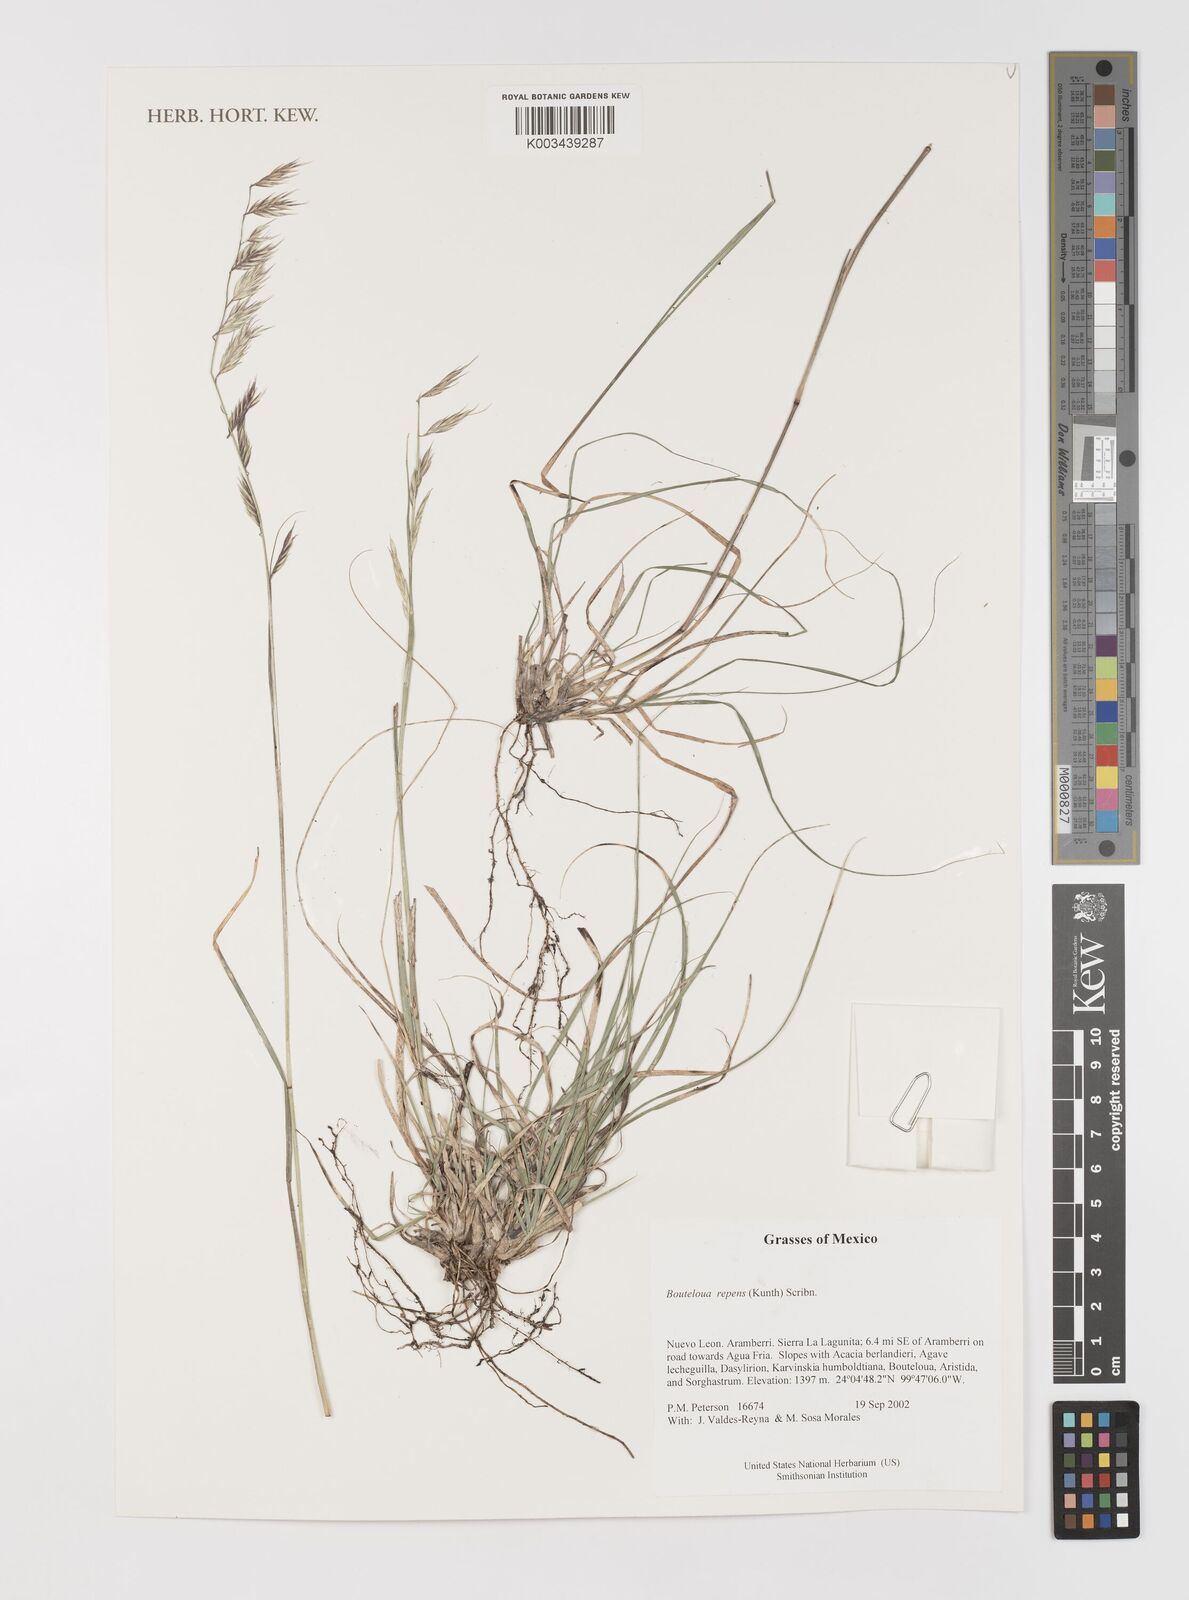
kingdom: Plantae
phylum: Tracheophyta
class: Liliopsida
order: Poales
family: Poaceae
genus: Bouteloua
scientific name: Bouteloua repens
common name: Slender grama
